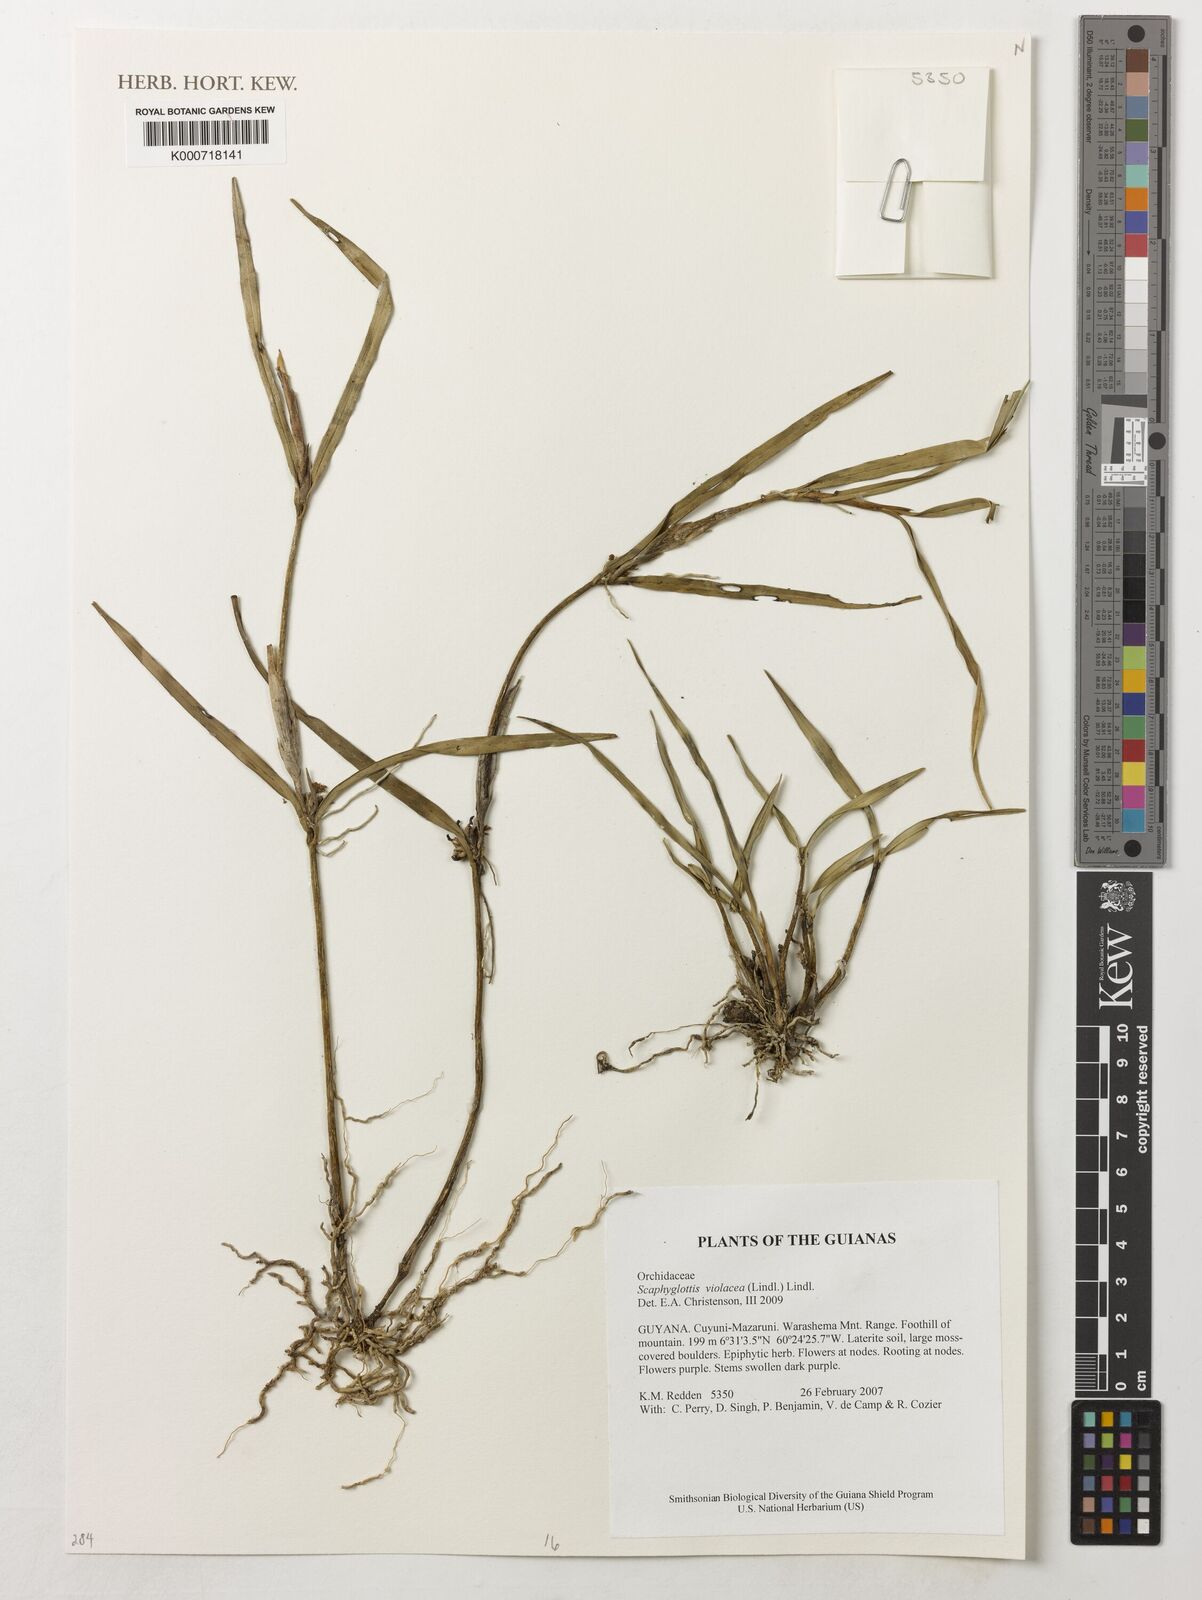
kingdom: Plantae
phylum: Tracheophyta
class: Liliopsida
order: Asparagales
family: Orchidaceae
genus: Scaphyglottis
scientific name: Scaphyglottis graminifolia
